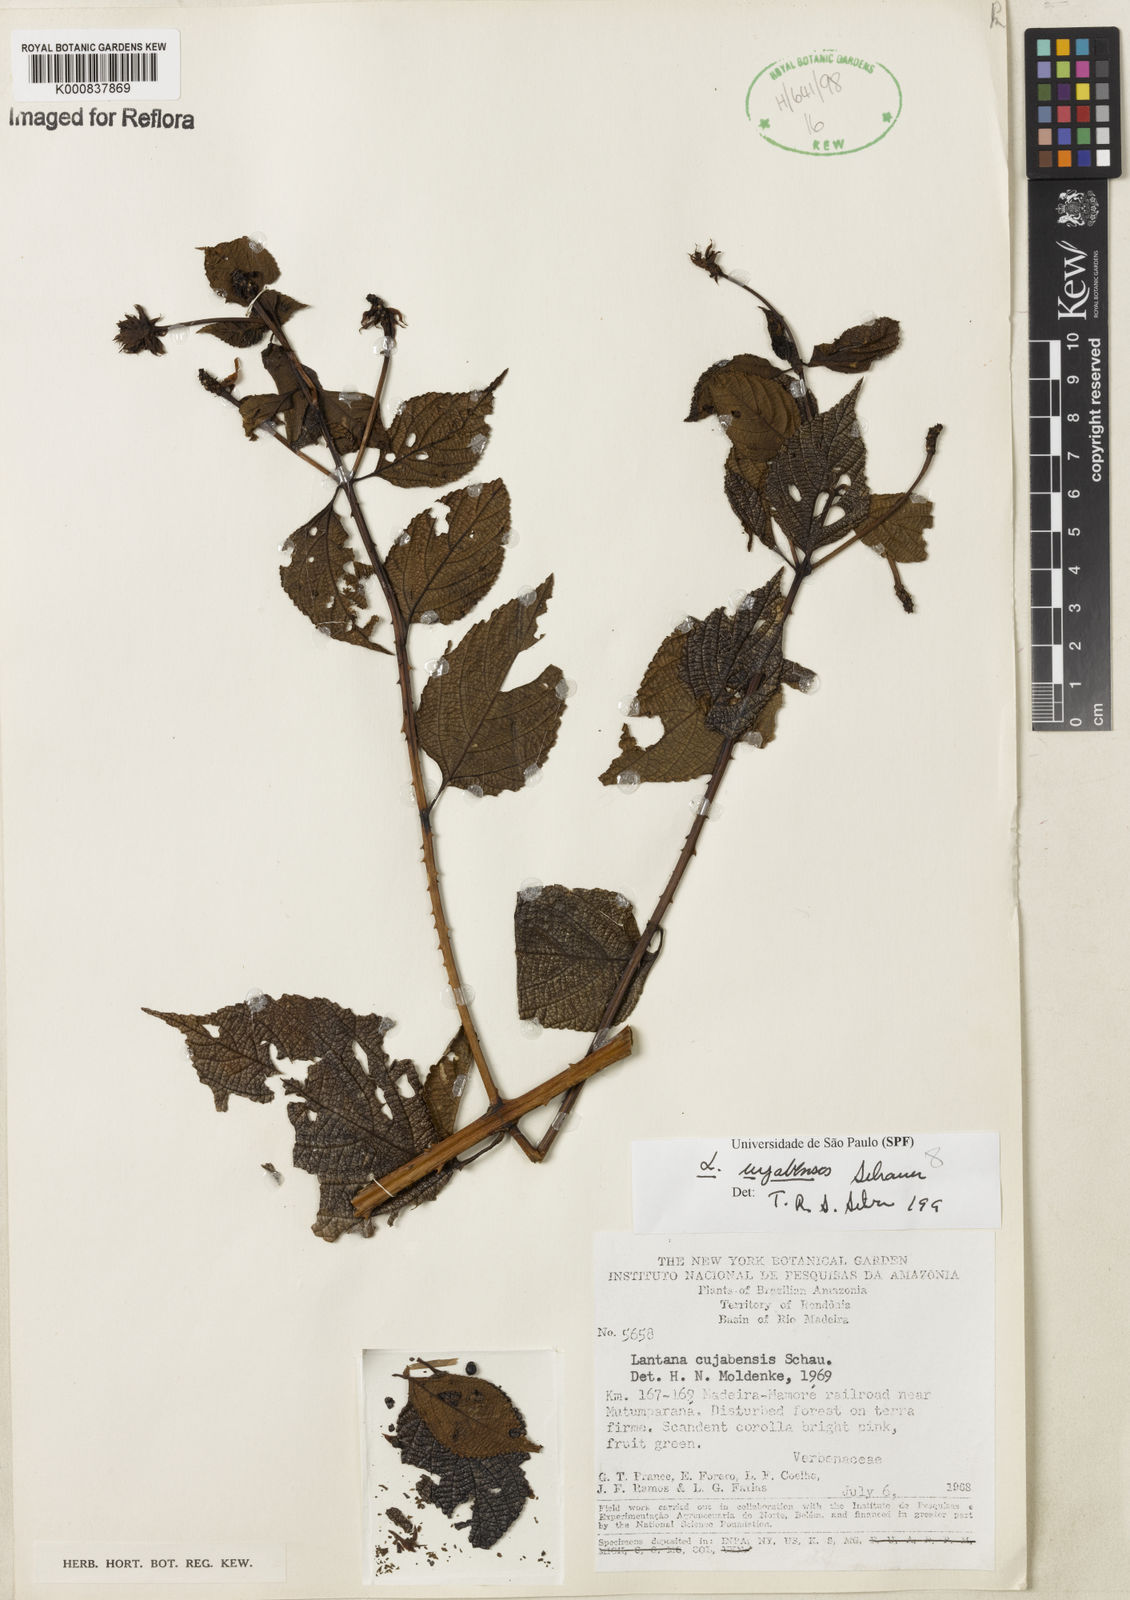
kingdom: Plantae
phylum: Tracheophyta
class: Magnoliopsida
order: Lamiales
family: Verbenaceae
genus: Lantana
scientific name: Lantana cujabensis
